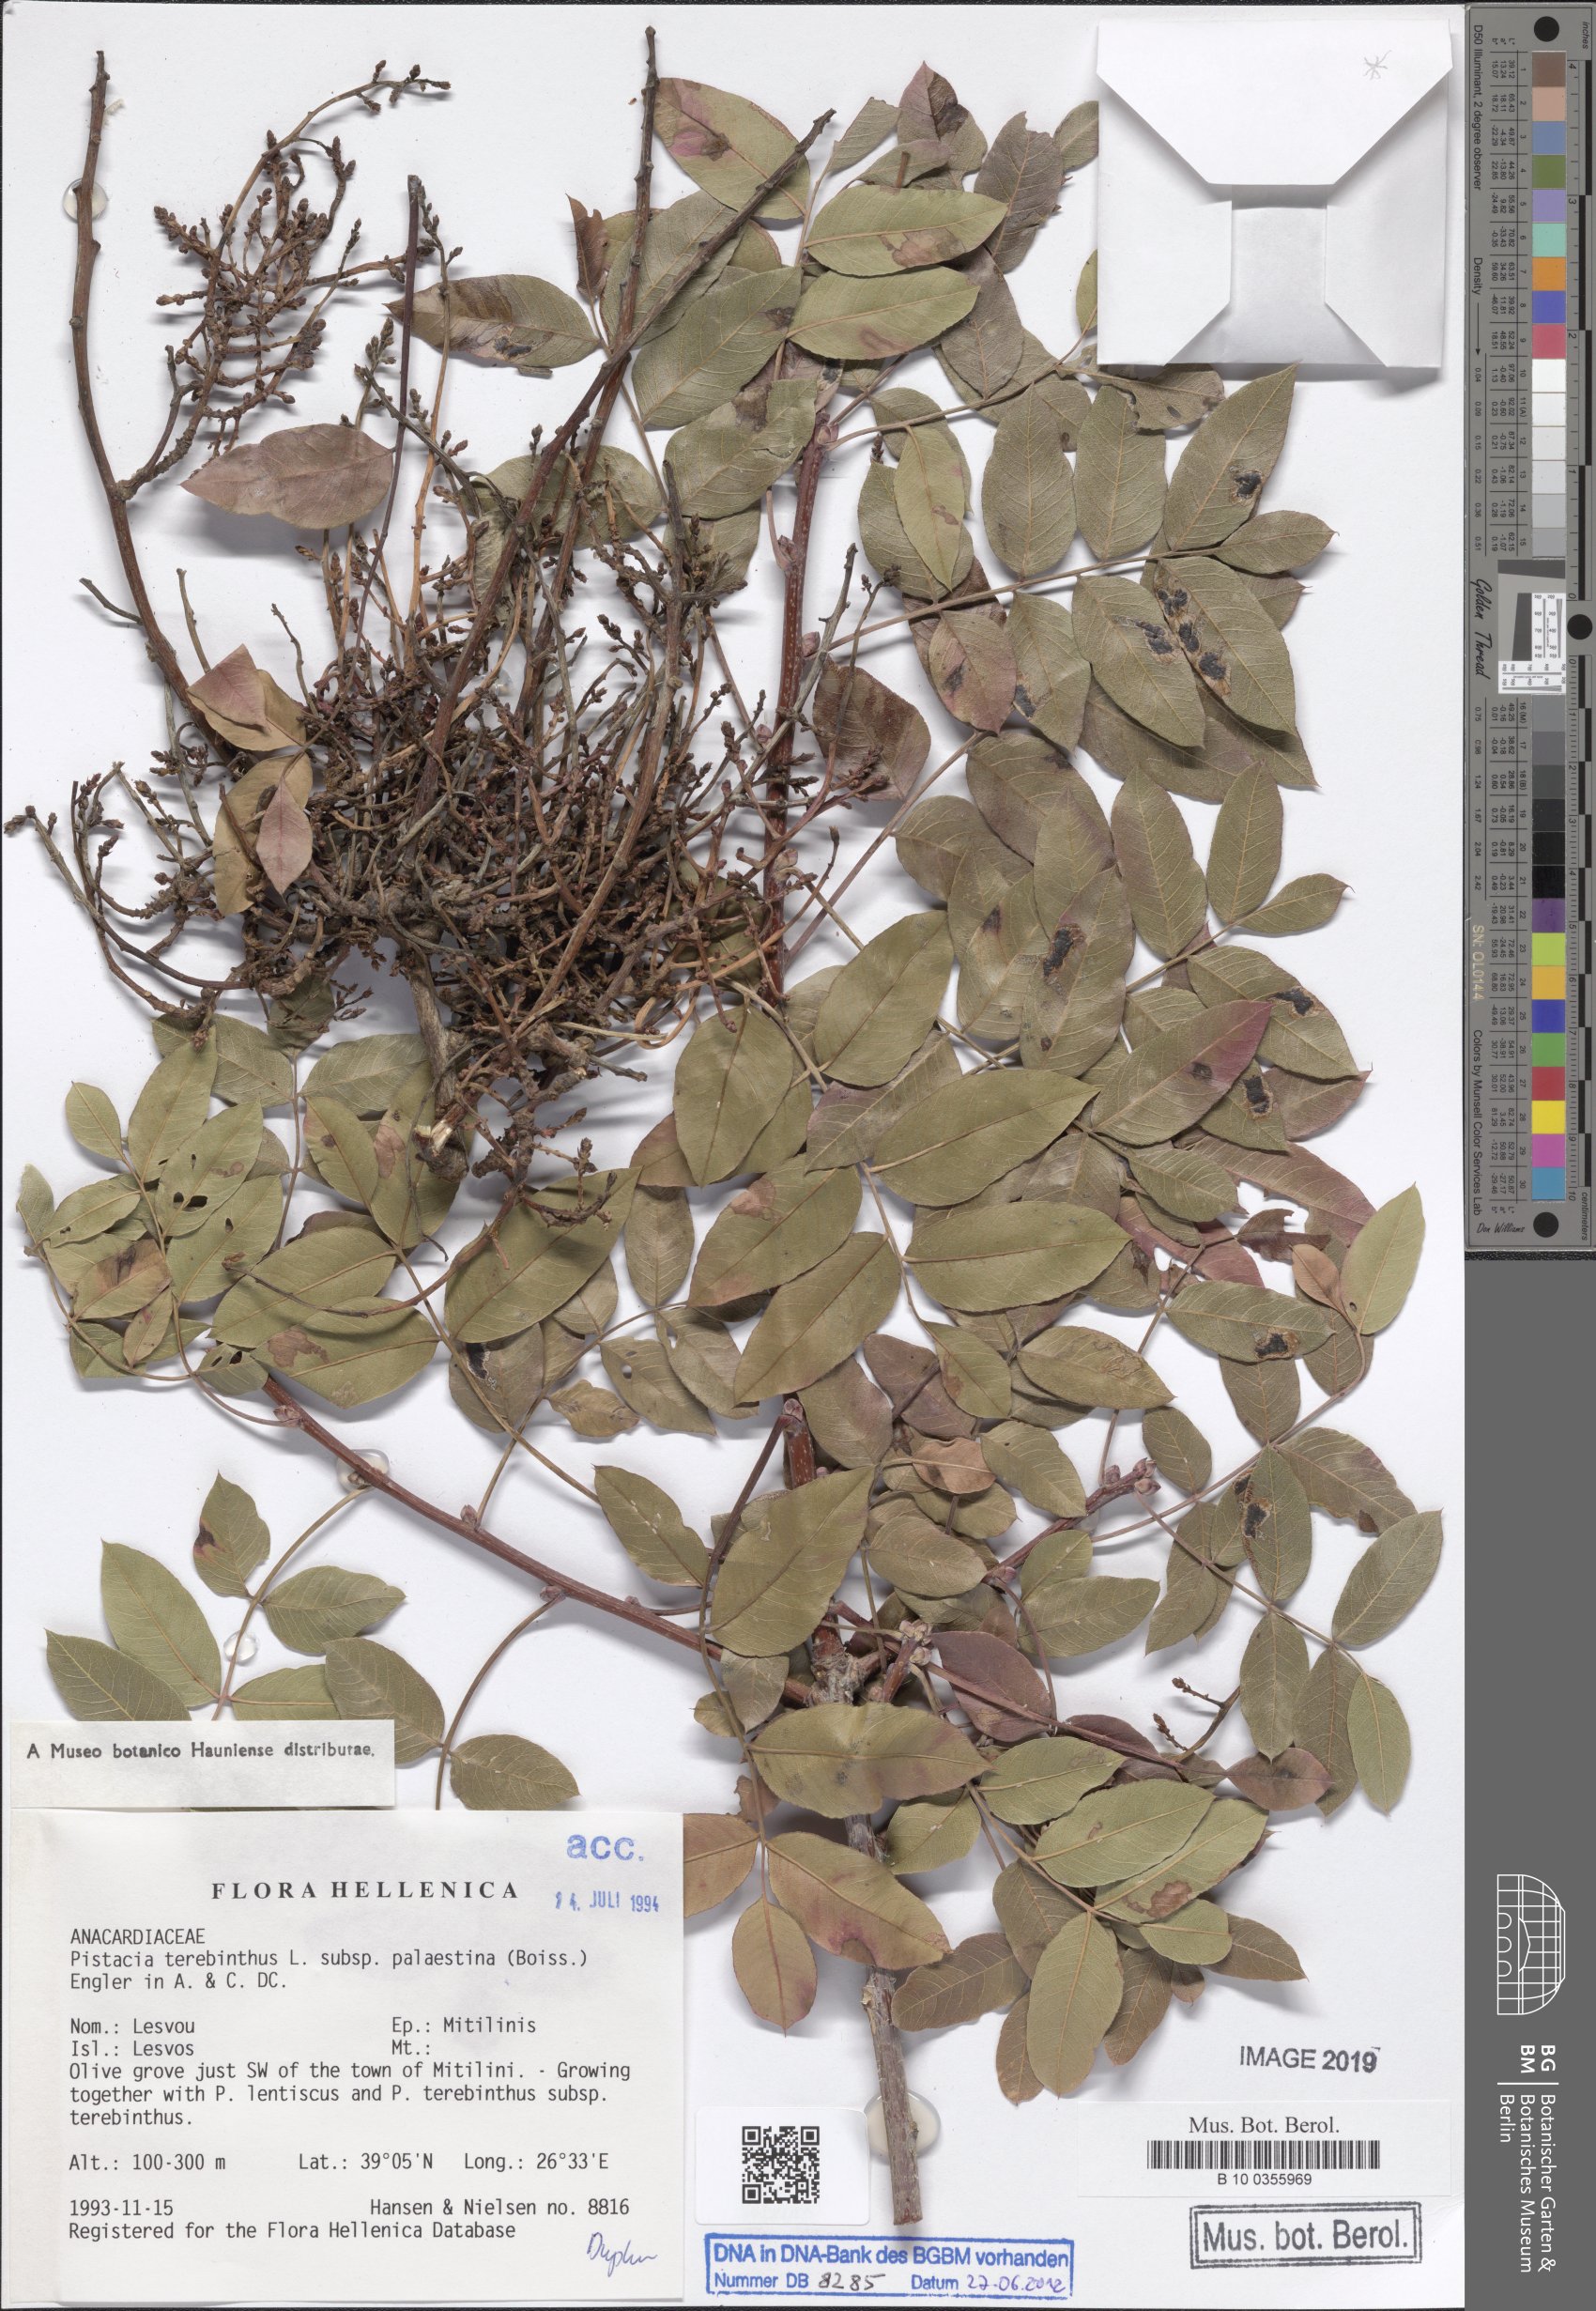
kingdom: Plantae
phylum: Tracheophyta
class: Magnoliopsida
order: Sapindales
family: Anacardiaceae
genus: Pistacia
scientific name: Pistacia terebinthus
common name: Terebinth
